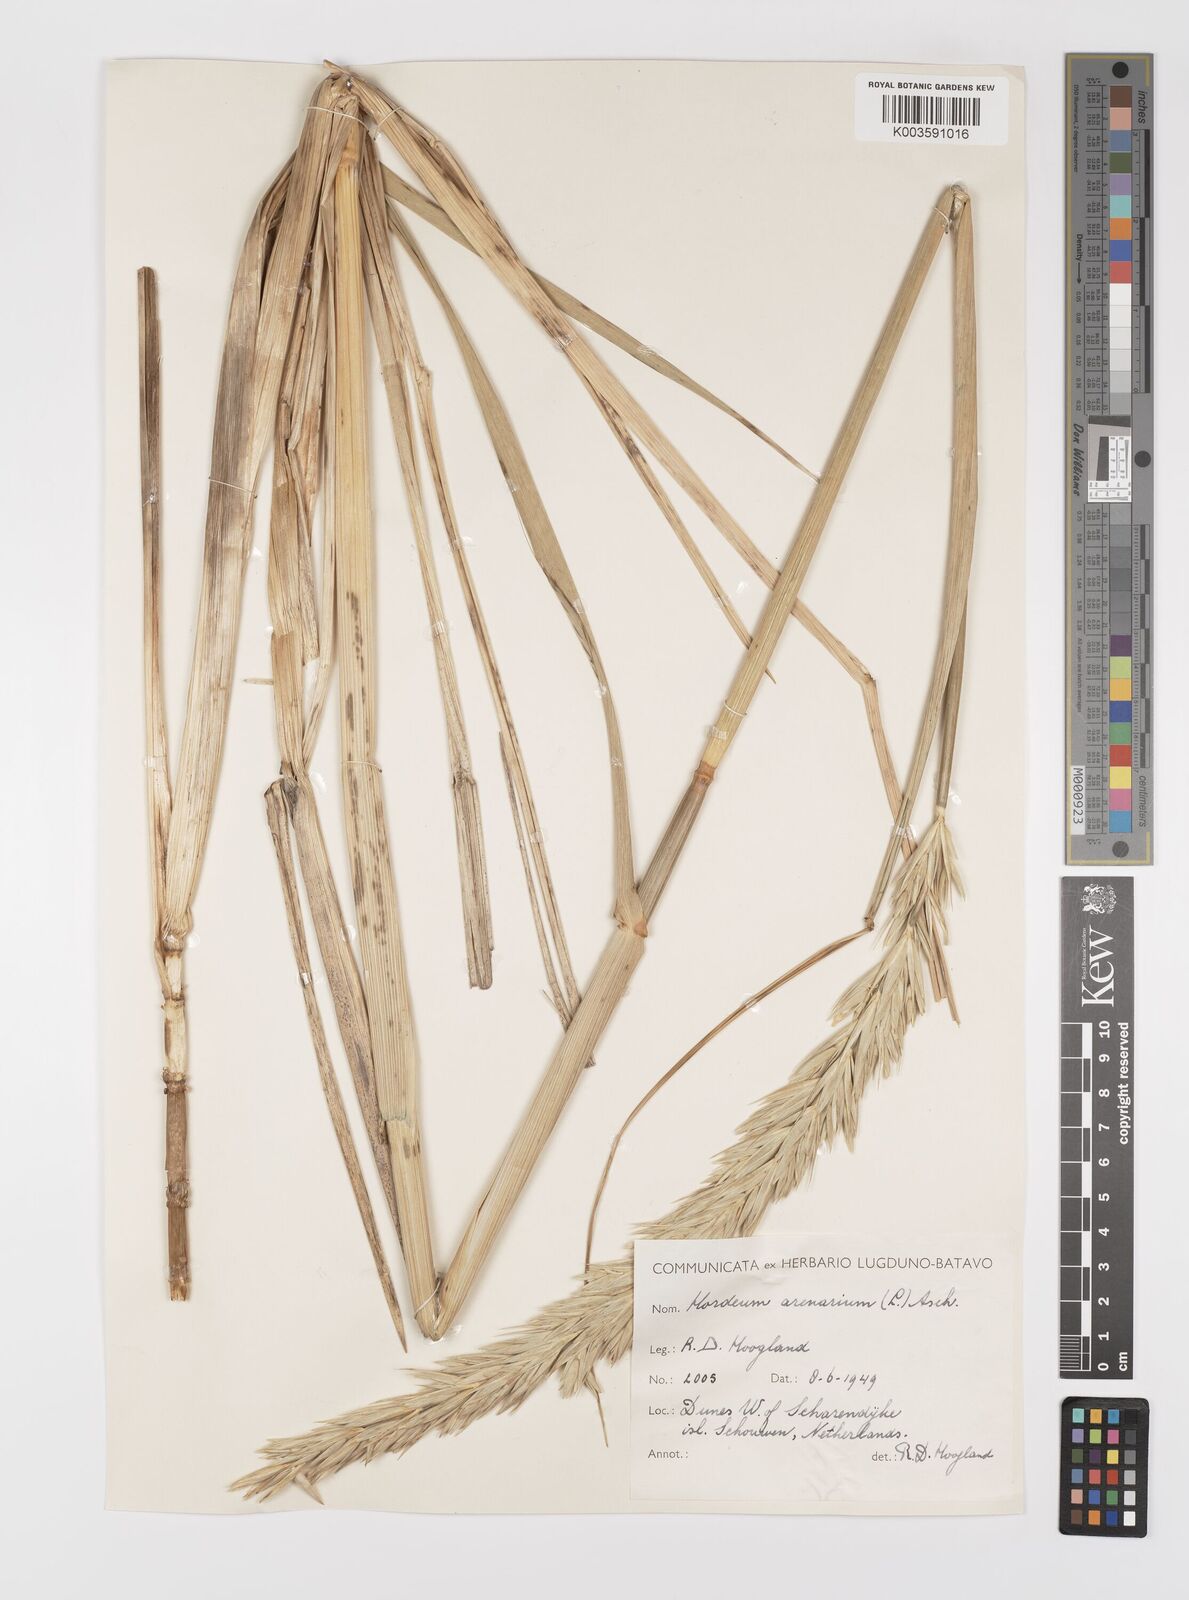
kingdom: Plantae
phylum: Tracheophyta
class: Liliopsida
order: Poales
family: Poaceae
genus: Leymus
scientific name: Leymus arenarius
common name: Lyme-grass
